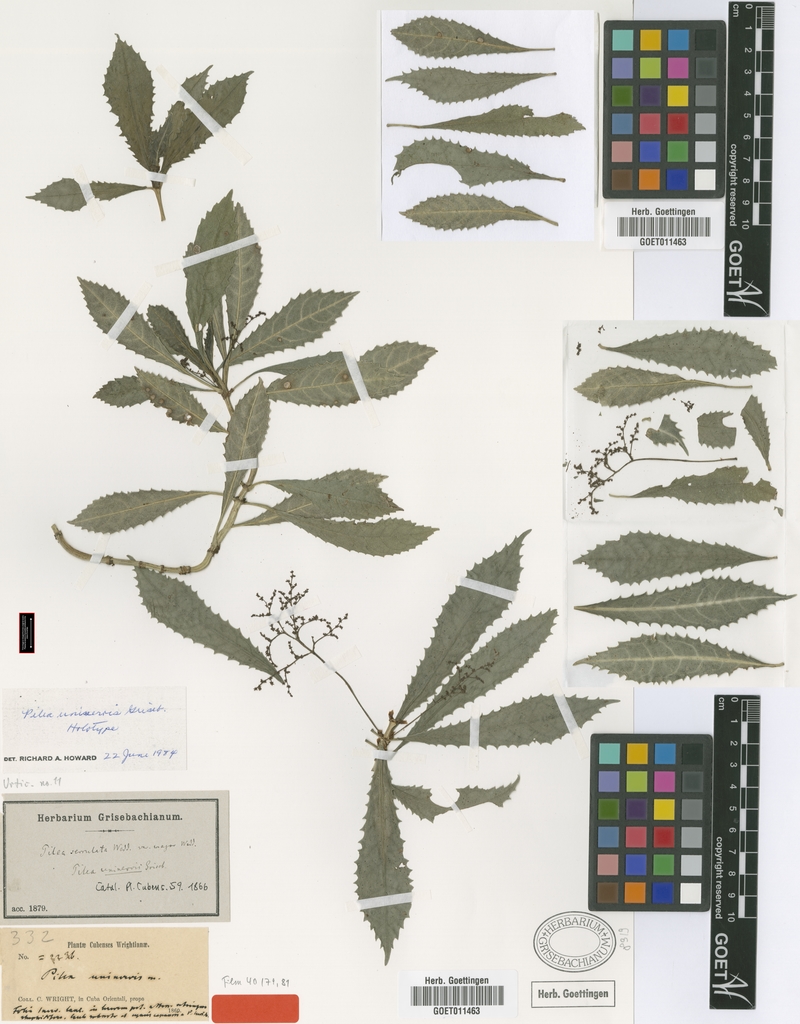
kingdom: Plantae
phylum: Tracheophyta
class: Magnoliopsida
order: Rosales
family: Urticaceae
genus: Pilea
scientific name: Pilea uninervis
